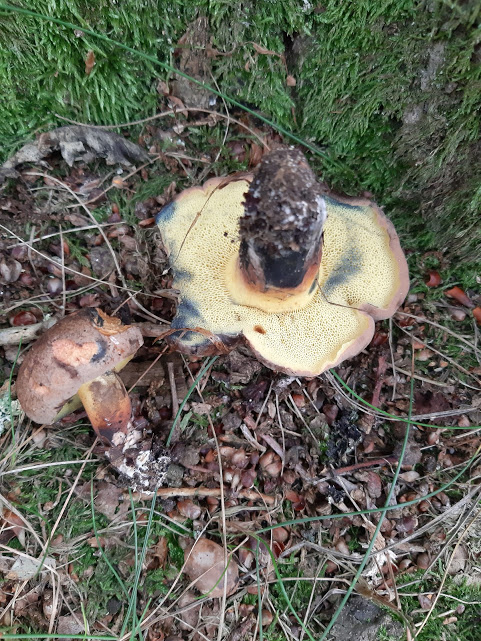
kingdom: Fungi
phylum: Basidiomycota
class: Agaricomycetes
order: Boletales
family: Boletaceae
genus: Cyanoboletus
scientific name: Cyanoboletus pulverulentus
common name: sortblånende rørhat
